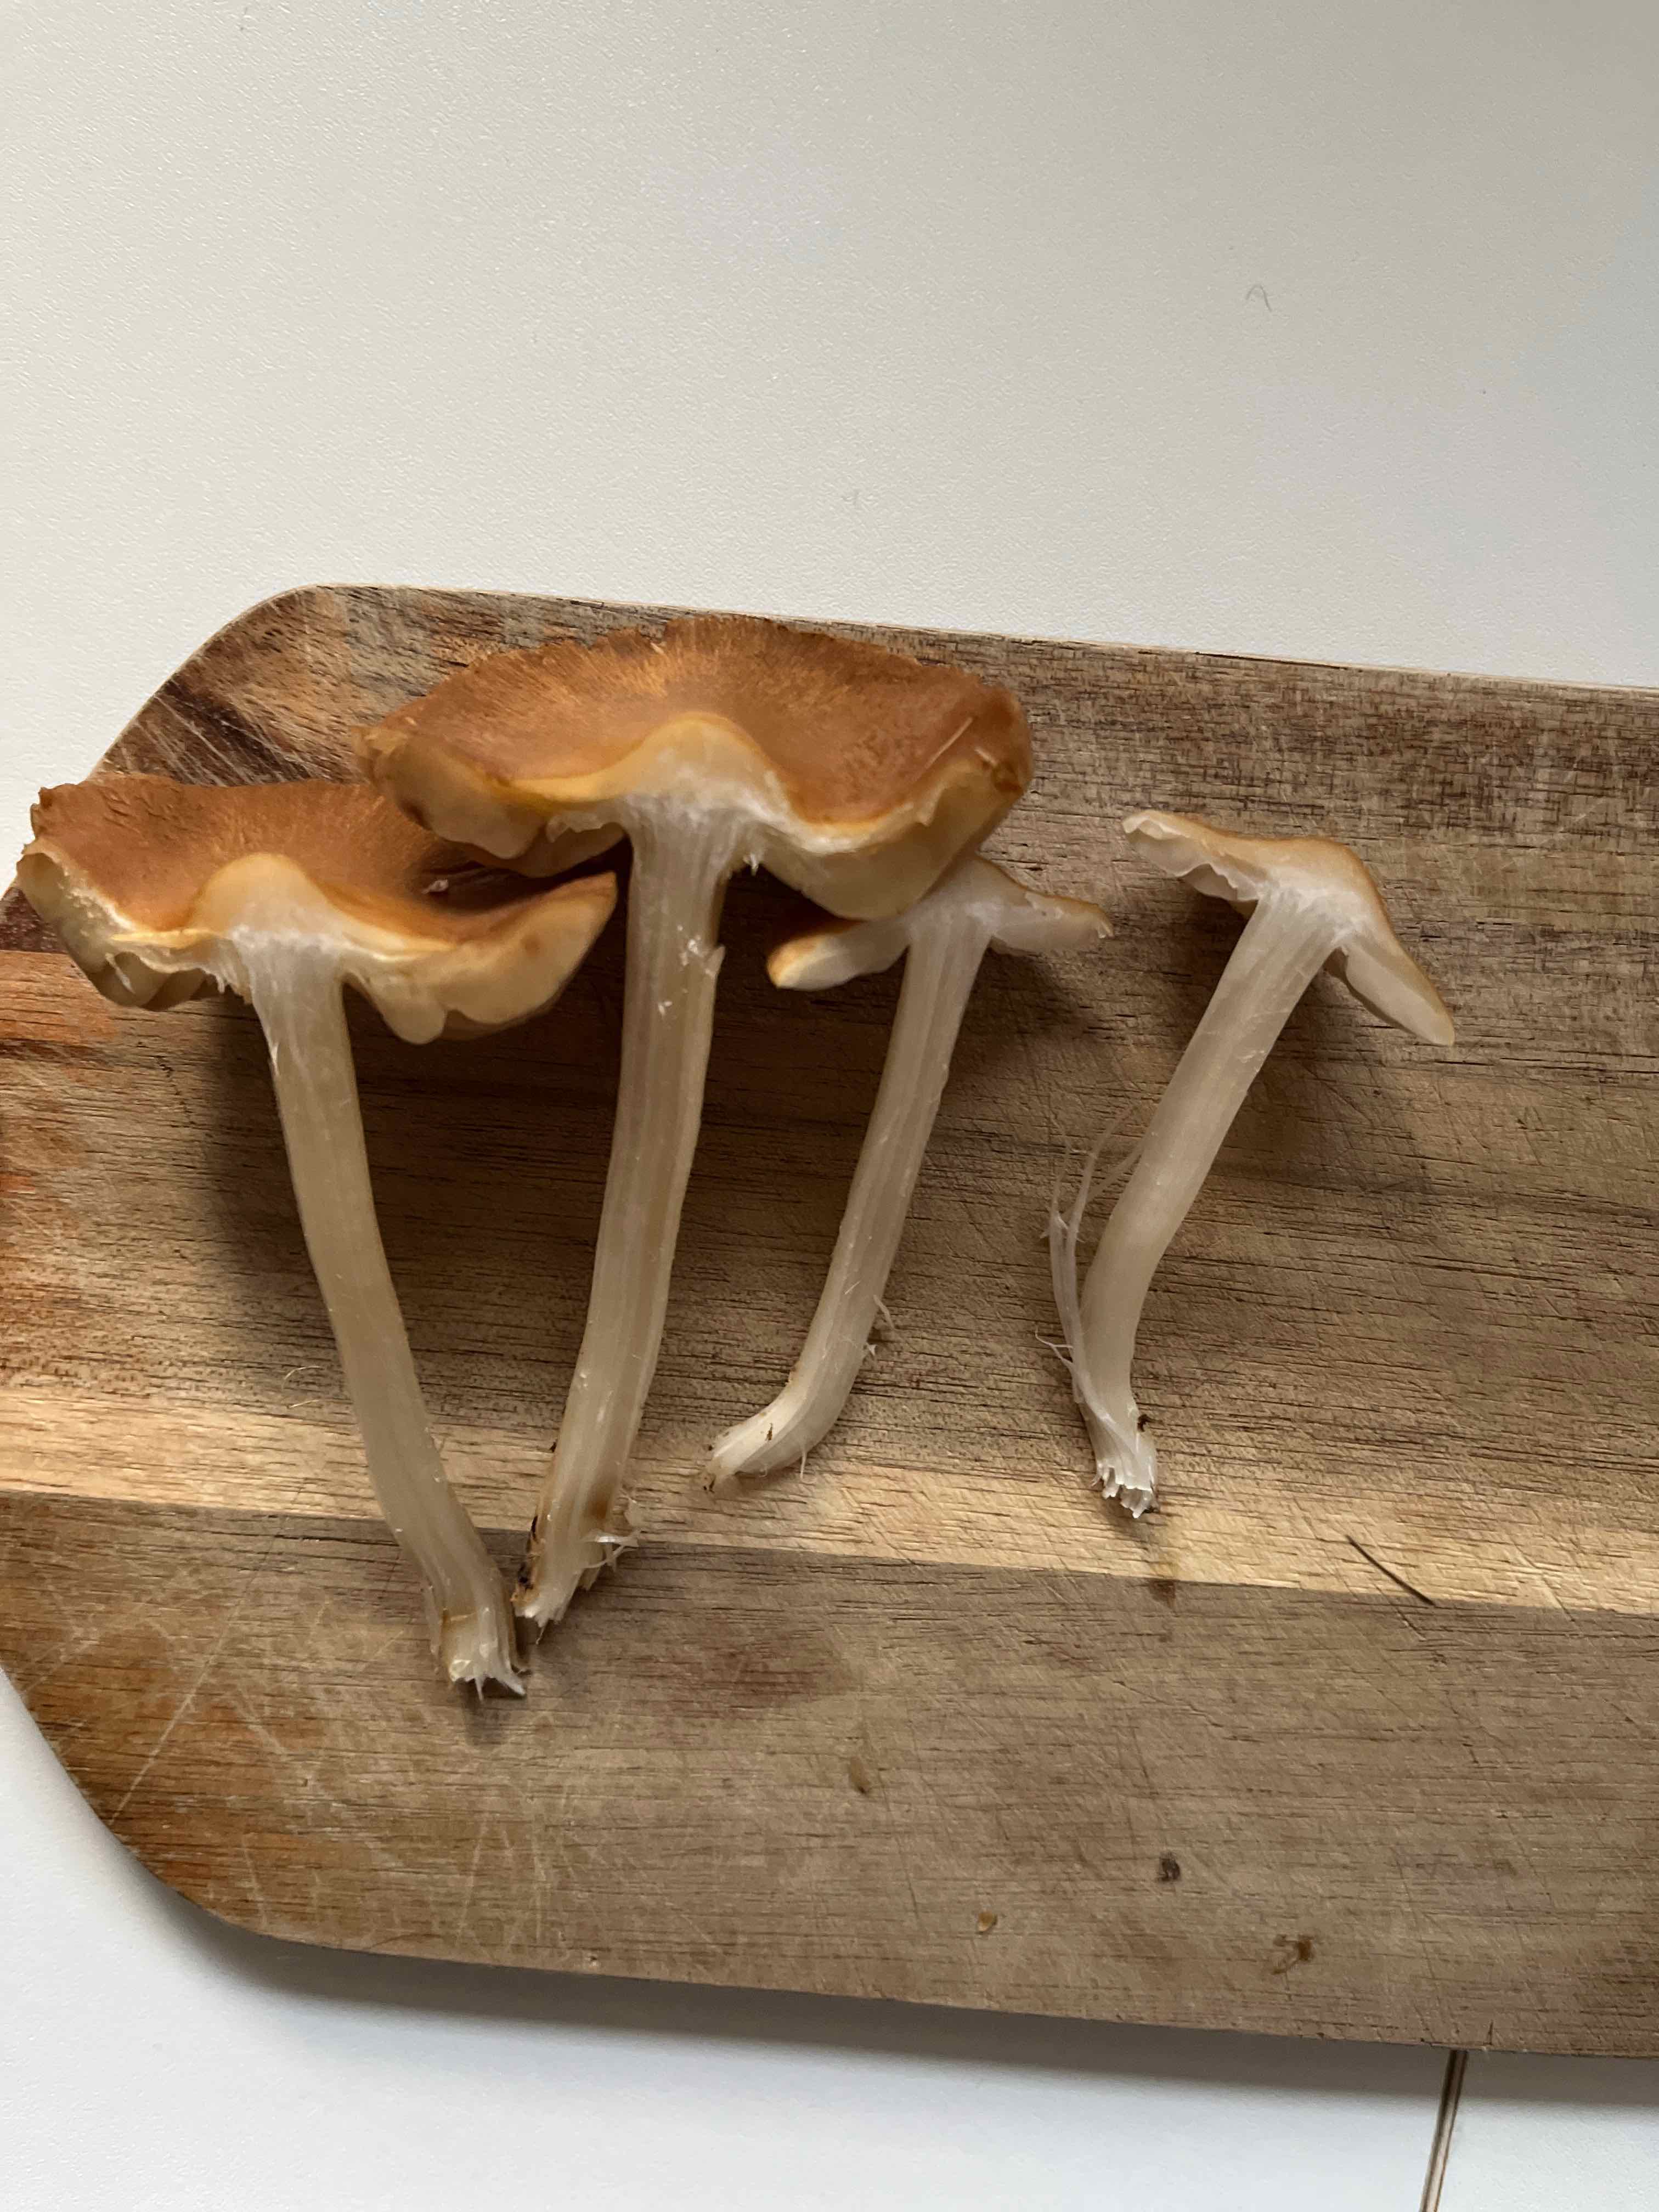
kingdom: Fungi
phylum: Basidiomycota
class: Agaricomycetes
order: Agaricales
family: Inocybaceae
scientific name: Inocybaceae
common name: trævlhatfamilien
